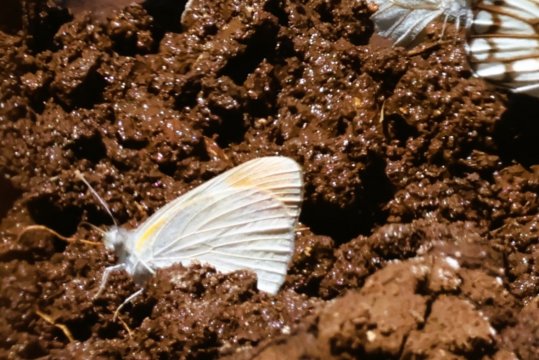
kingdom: Animalia
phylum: Arthropoda
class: Insecta
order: Lepidoptera
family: Pieridae
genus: Colotis
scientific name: Colotis evenina
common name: Common Orange Tip
